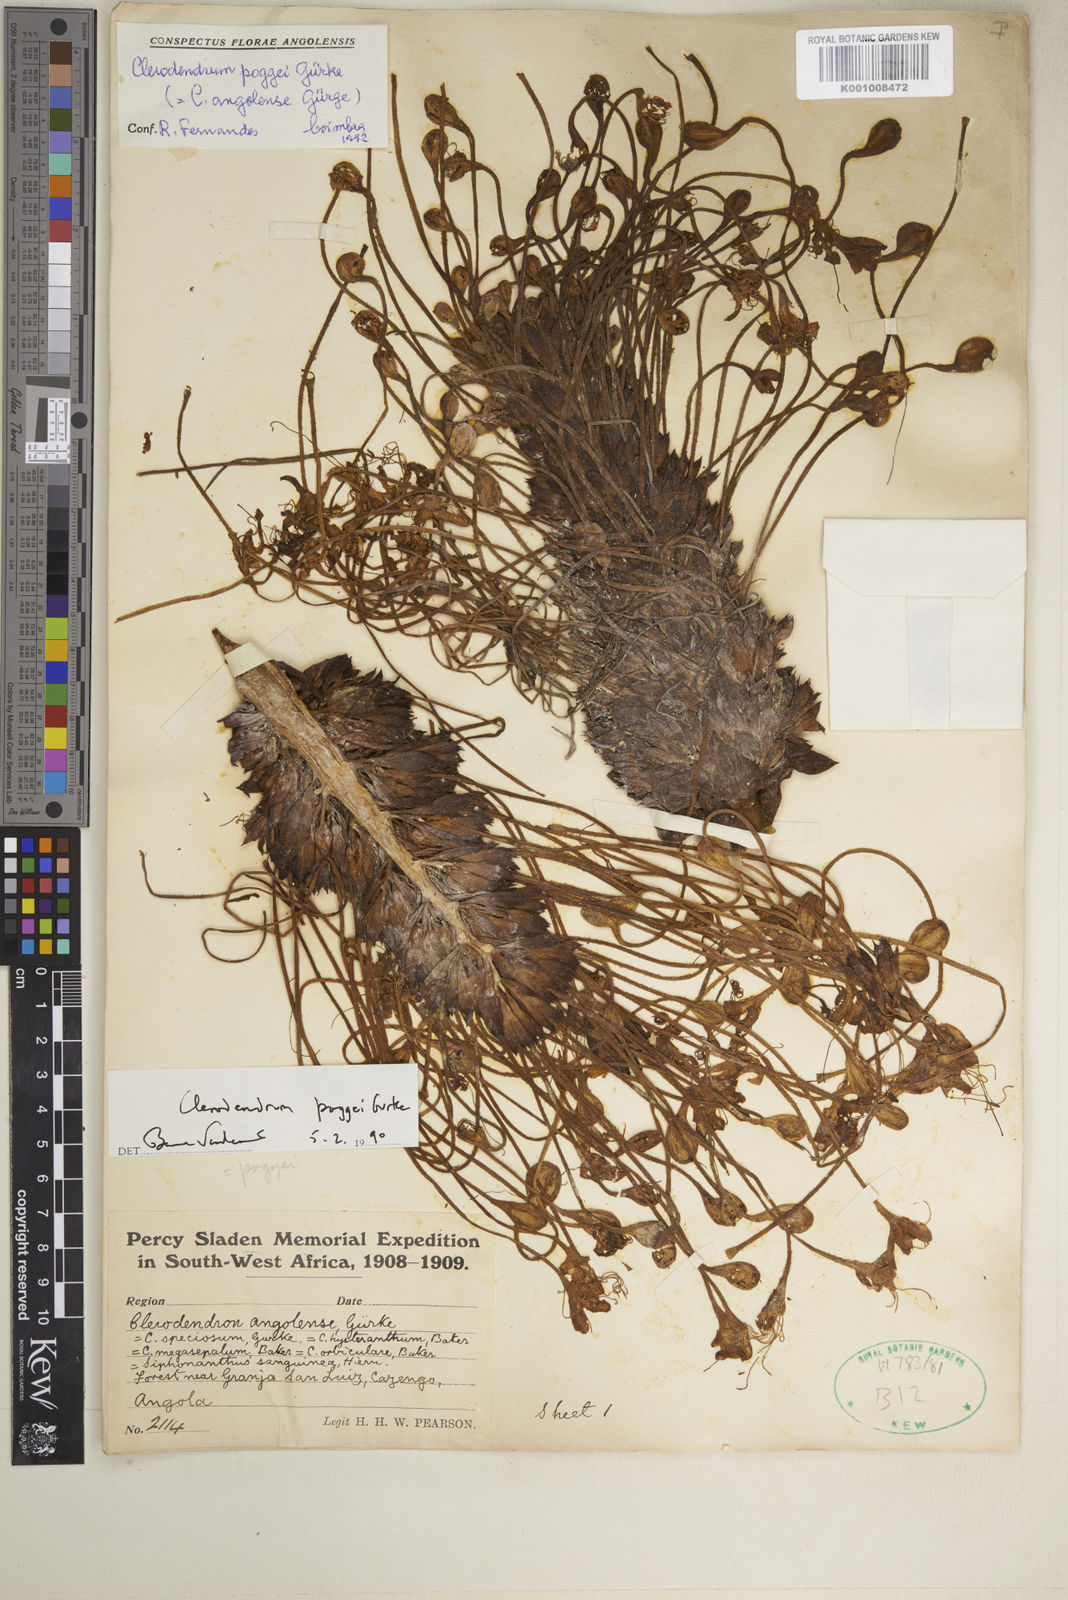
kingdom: Plantae
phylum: Tracheophyta
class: Magnoliopsida
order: Lamiales
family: Lamiaceae
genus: Clerodendrum
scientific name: Clerodendrum
